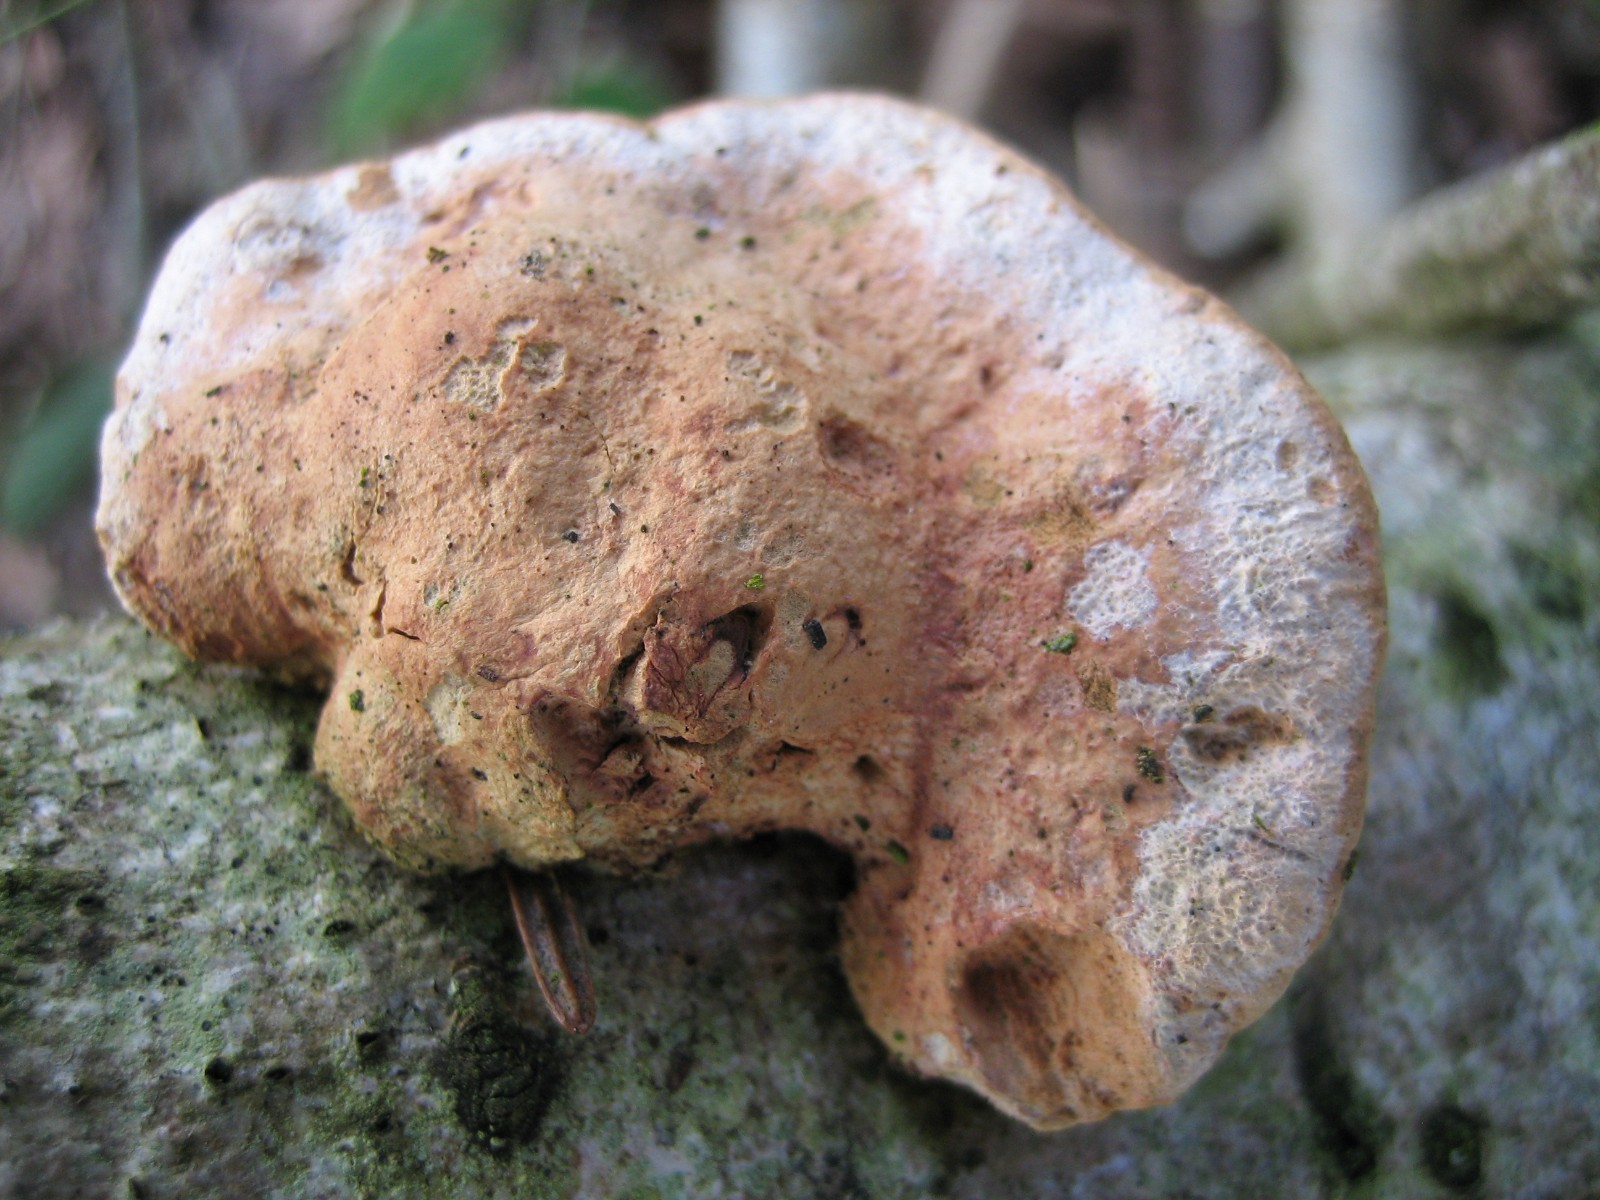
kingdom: Fungi
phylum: Basidiomycota
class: Agaricomycetes
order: Polyporales
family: Phanerochaetaceae
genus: Hapalopilus
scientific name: Hapalopilus rutilans
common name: rødlig okkerporesvamp
